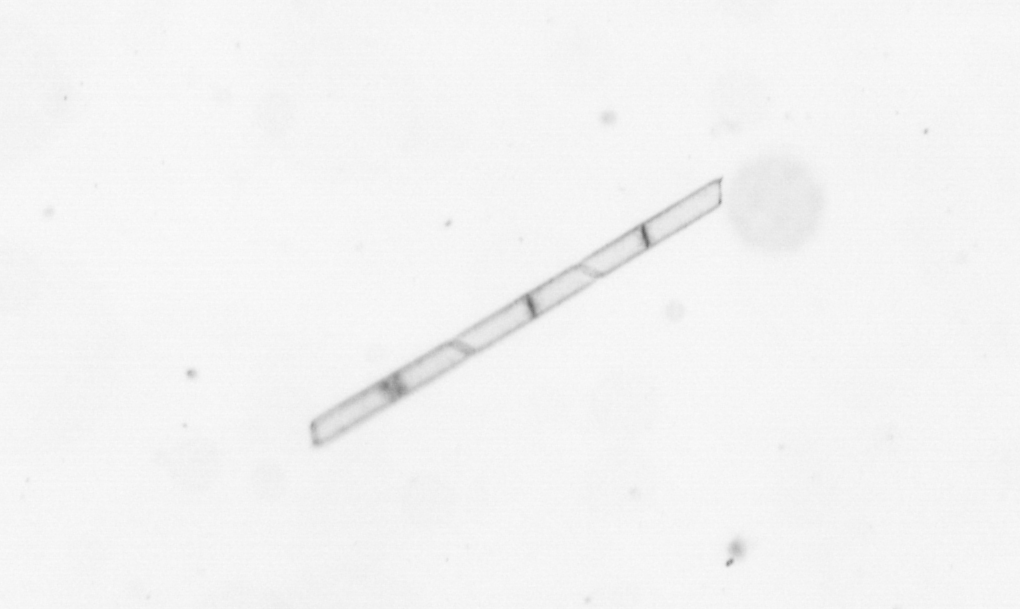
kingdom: Chromista
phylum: Ochrophyta
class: Bacillariophyceae
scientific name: Bacillariophyceae
